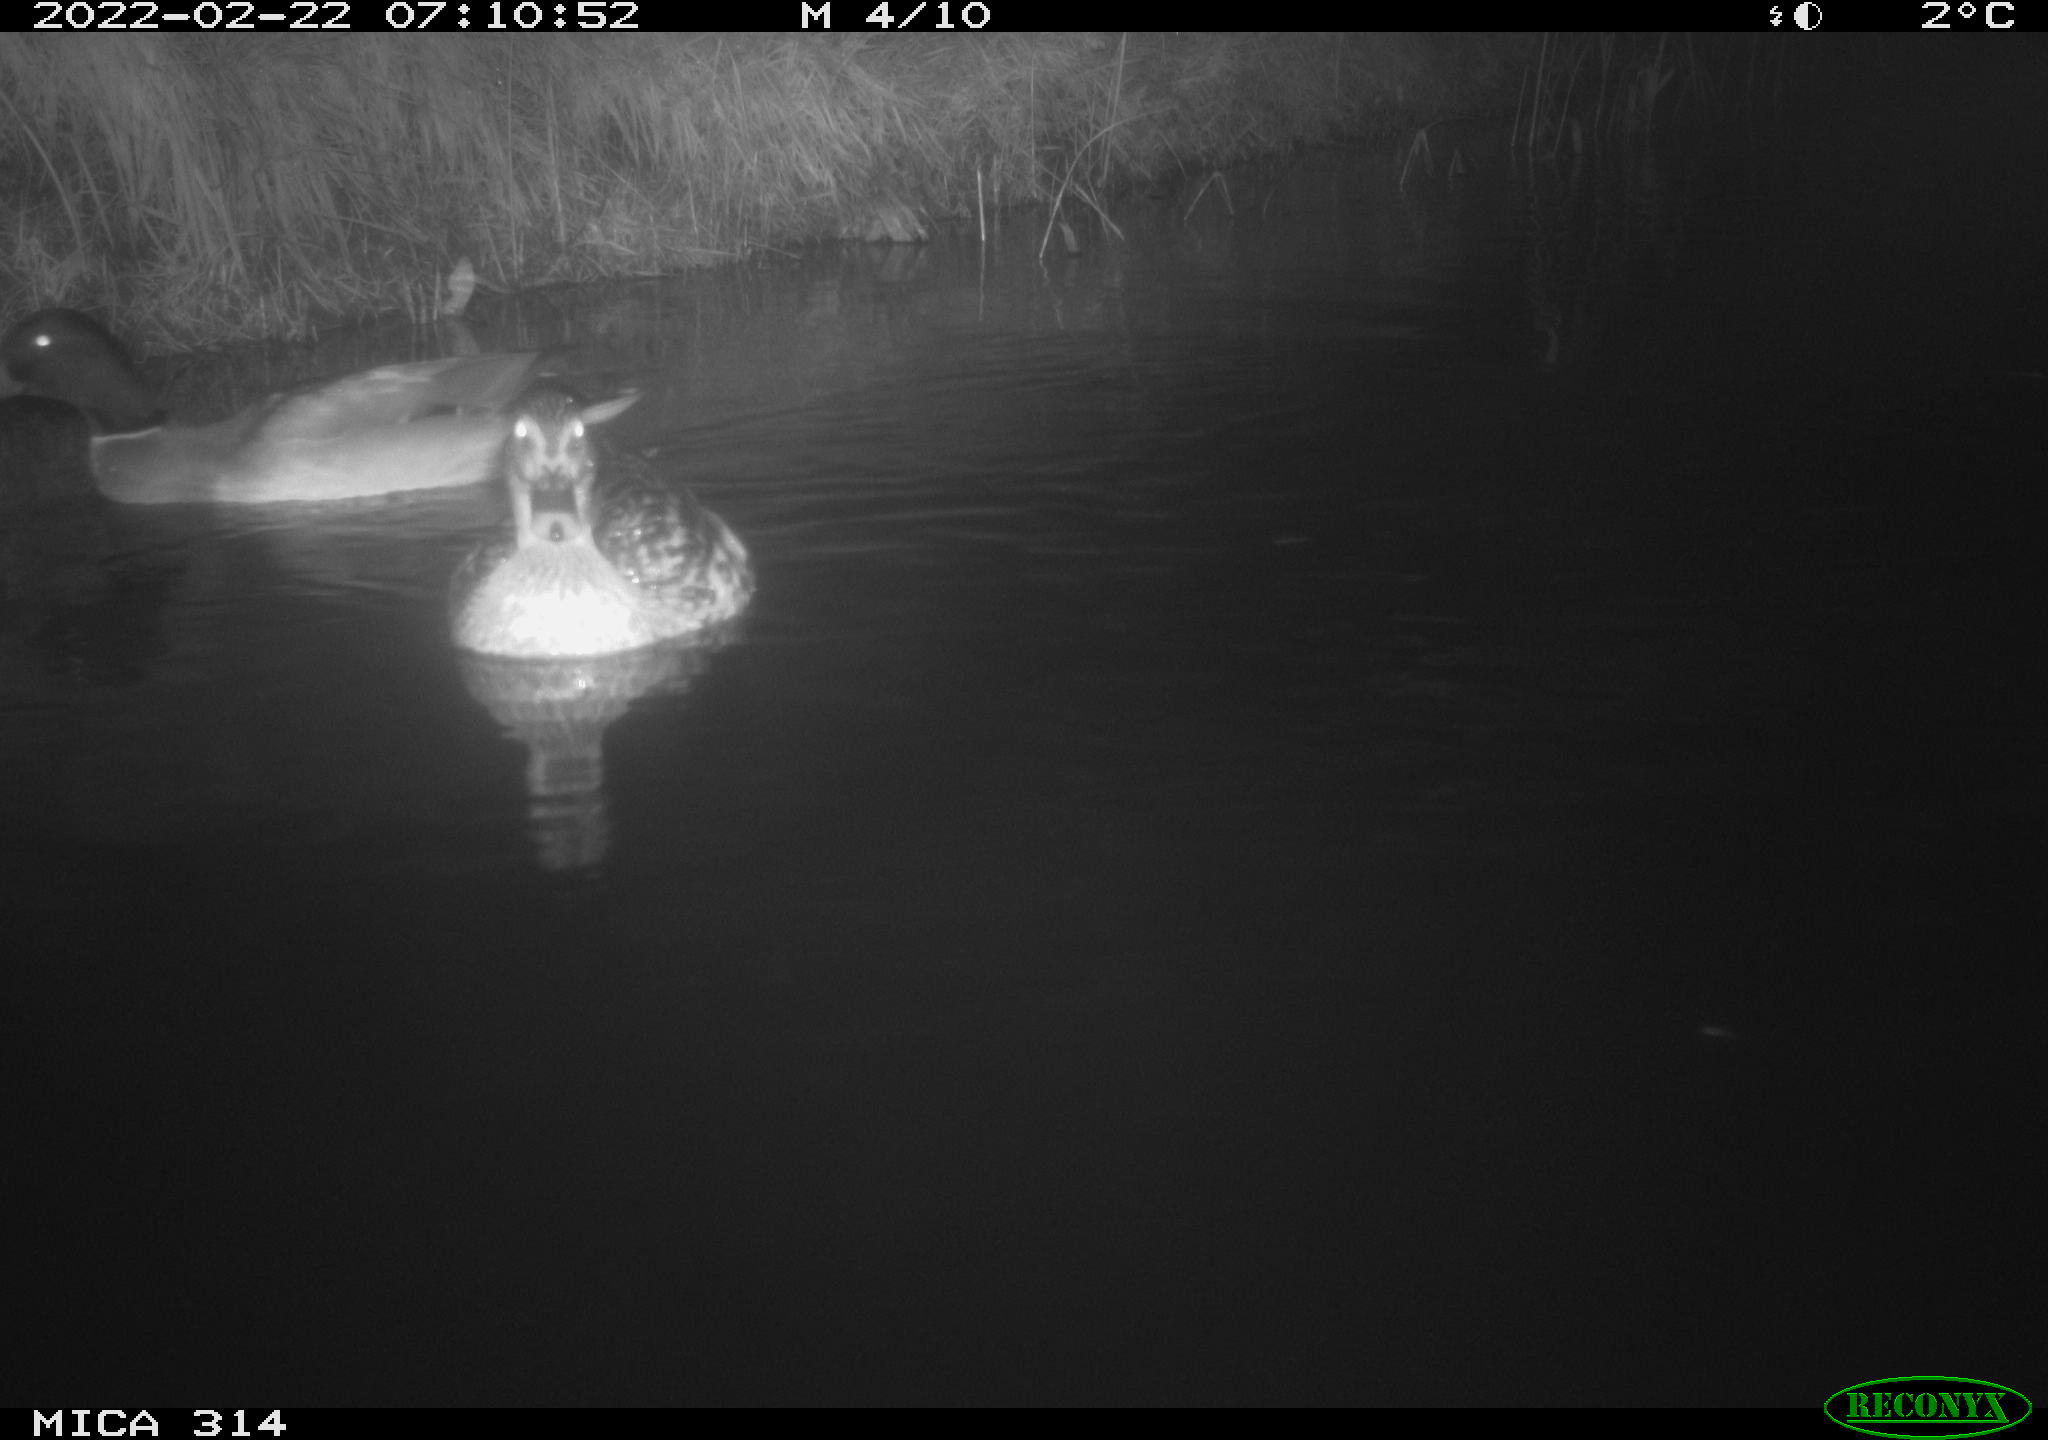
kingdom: Animalia
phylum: Chordata
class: Aves
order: Anseriformes
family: Anatidae
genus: Anas
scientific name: Anas platyrhynchos
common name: Mallard
